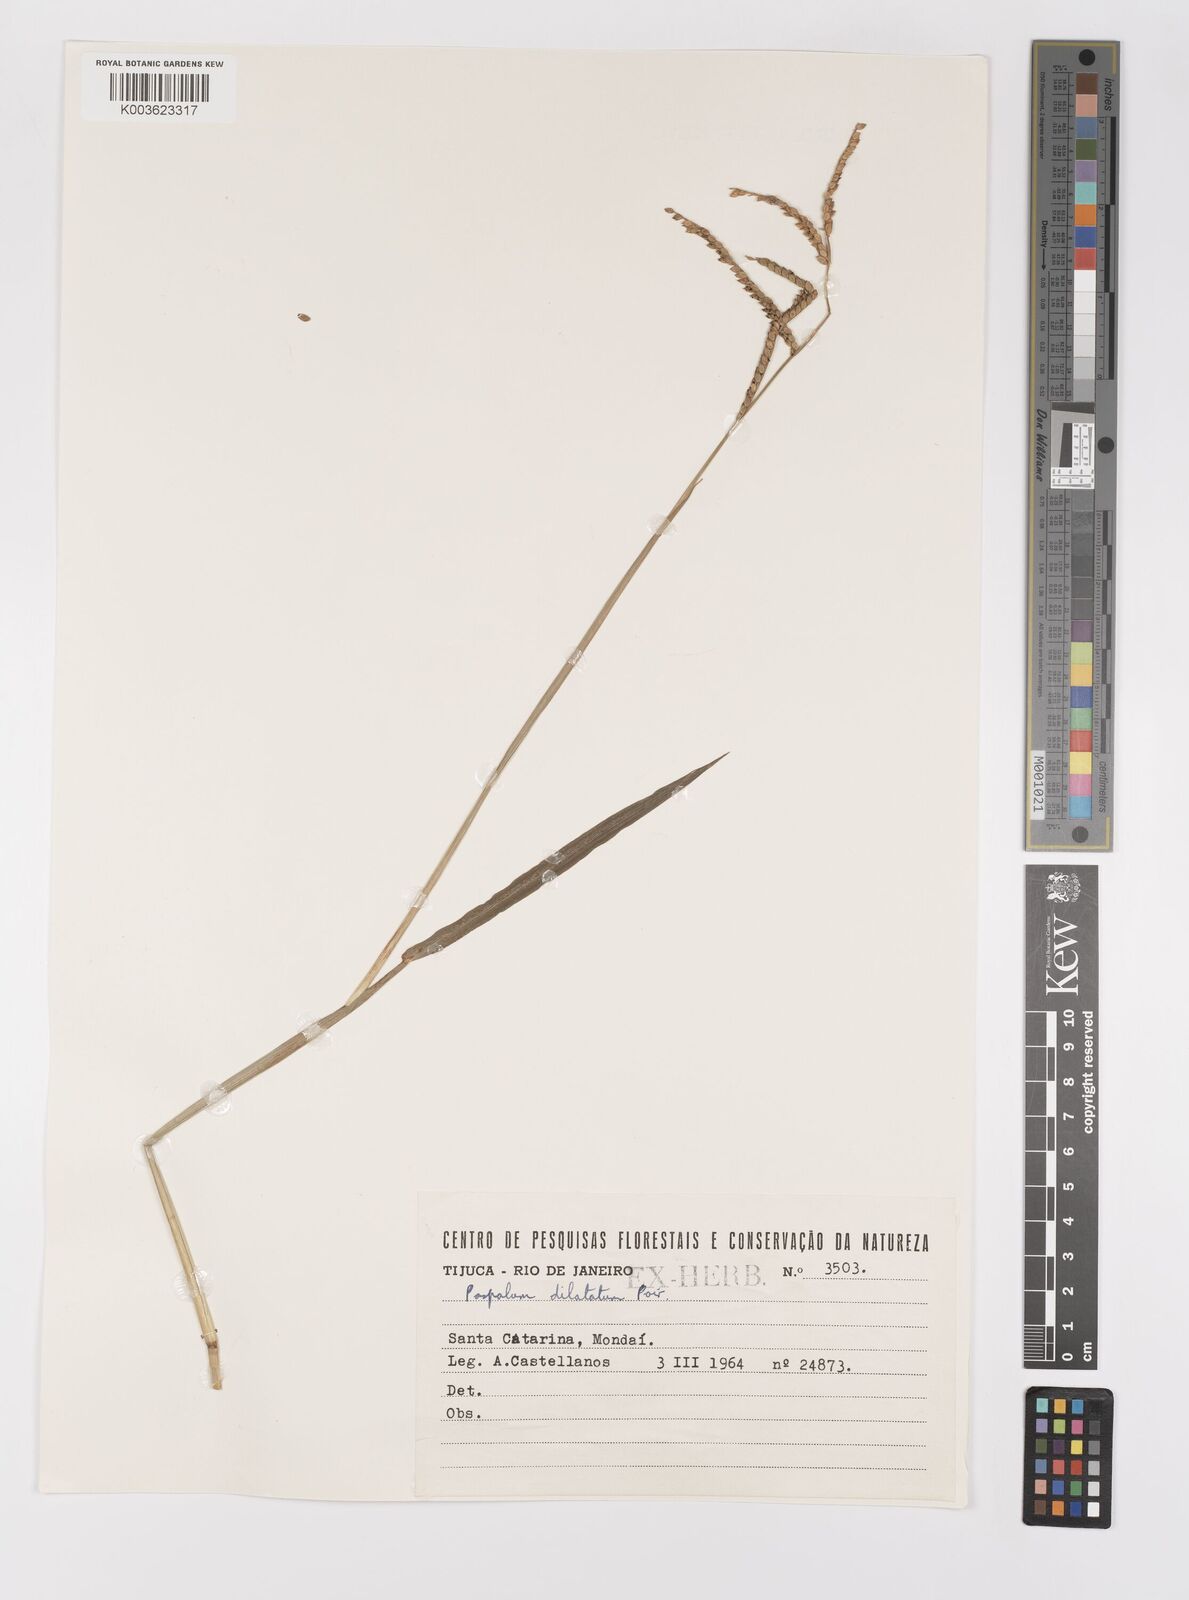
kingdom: Plantae
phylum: Tracheophyta
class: Liliopsida
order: Poales
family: Poaceae
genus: Paspalum
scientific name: Paspalum dilatatum
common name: Dallisgrass
